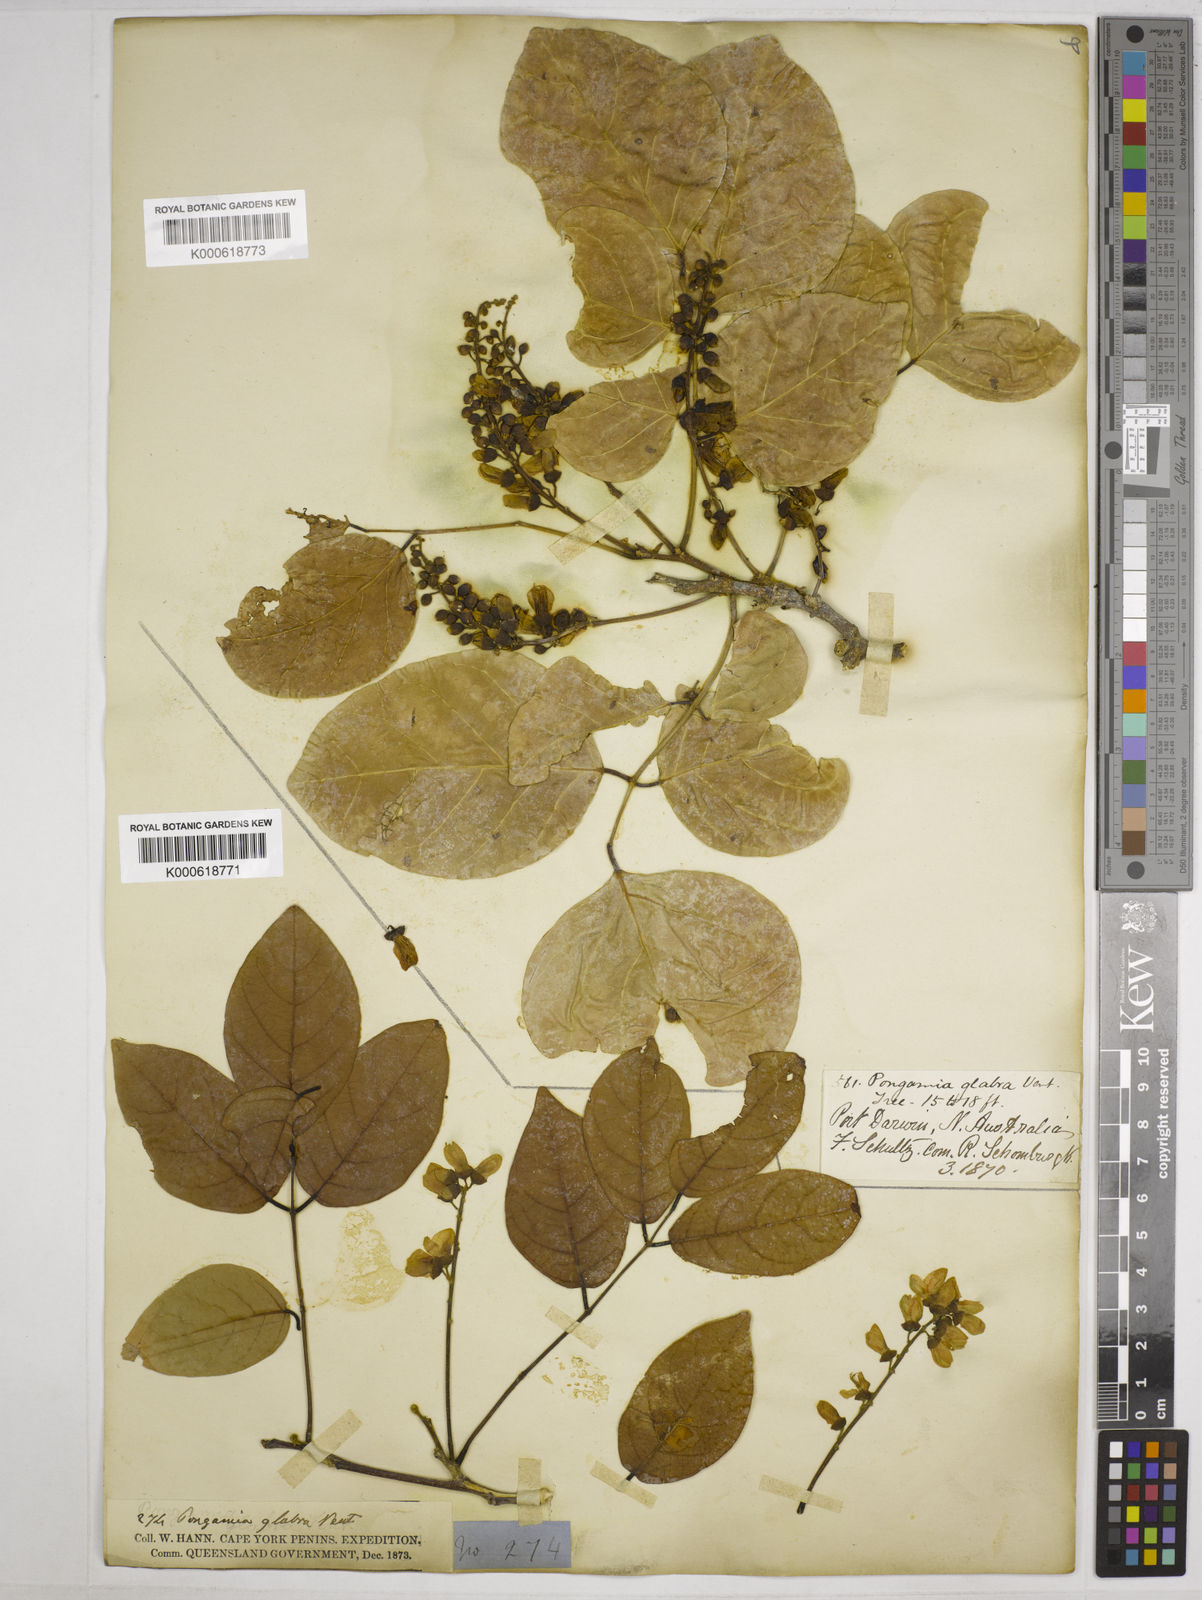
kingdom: Plantae
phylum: Tracheophyta
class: Magnoliopsida
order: Fabales
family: Fabaceae
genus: Pongamia
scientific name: Pongamia pinnata
